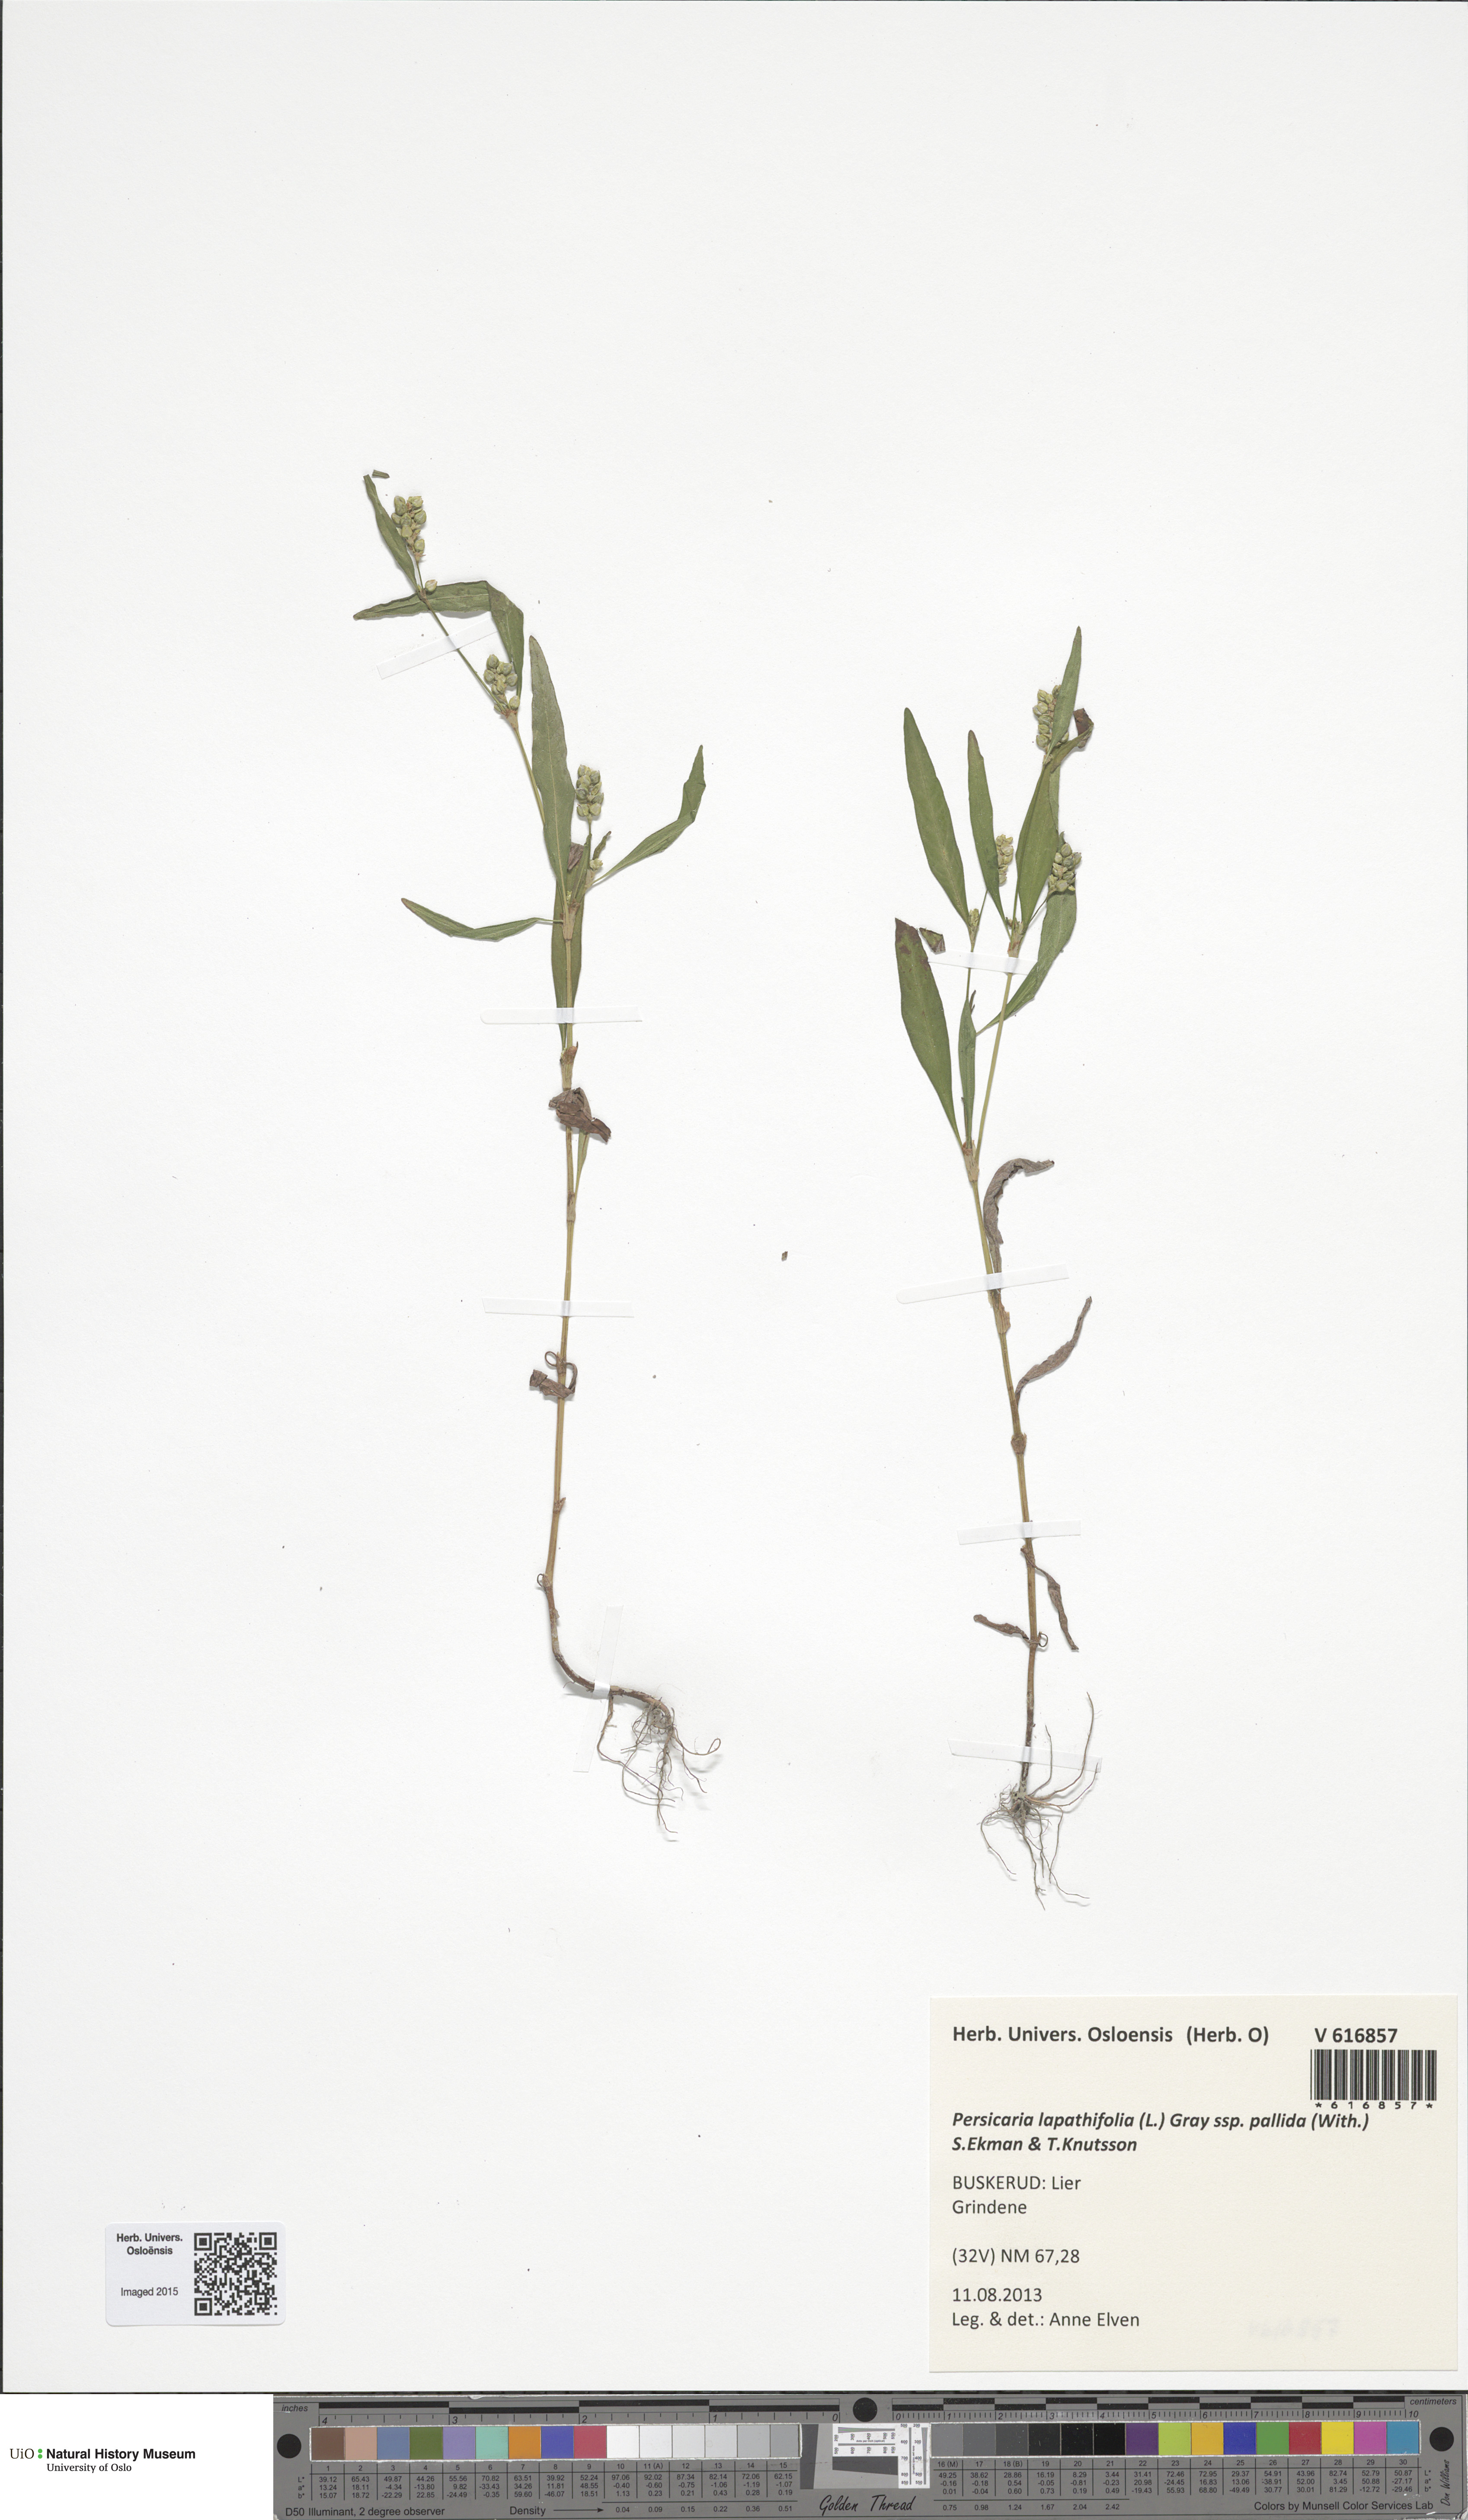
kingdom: Plantae
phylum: Tracheophyta
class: Magnoliopsida
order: Caryophyllales
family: Polygonaceae
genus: Persicaria
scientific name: Persicaria lapathifolia
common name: Curlytop knotweed
